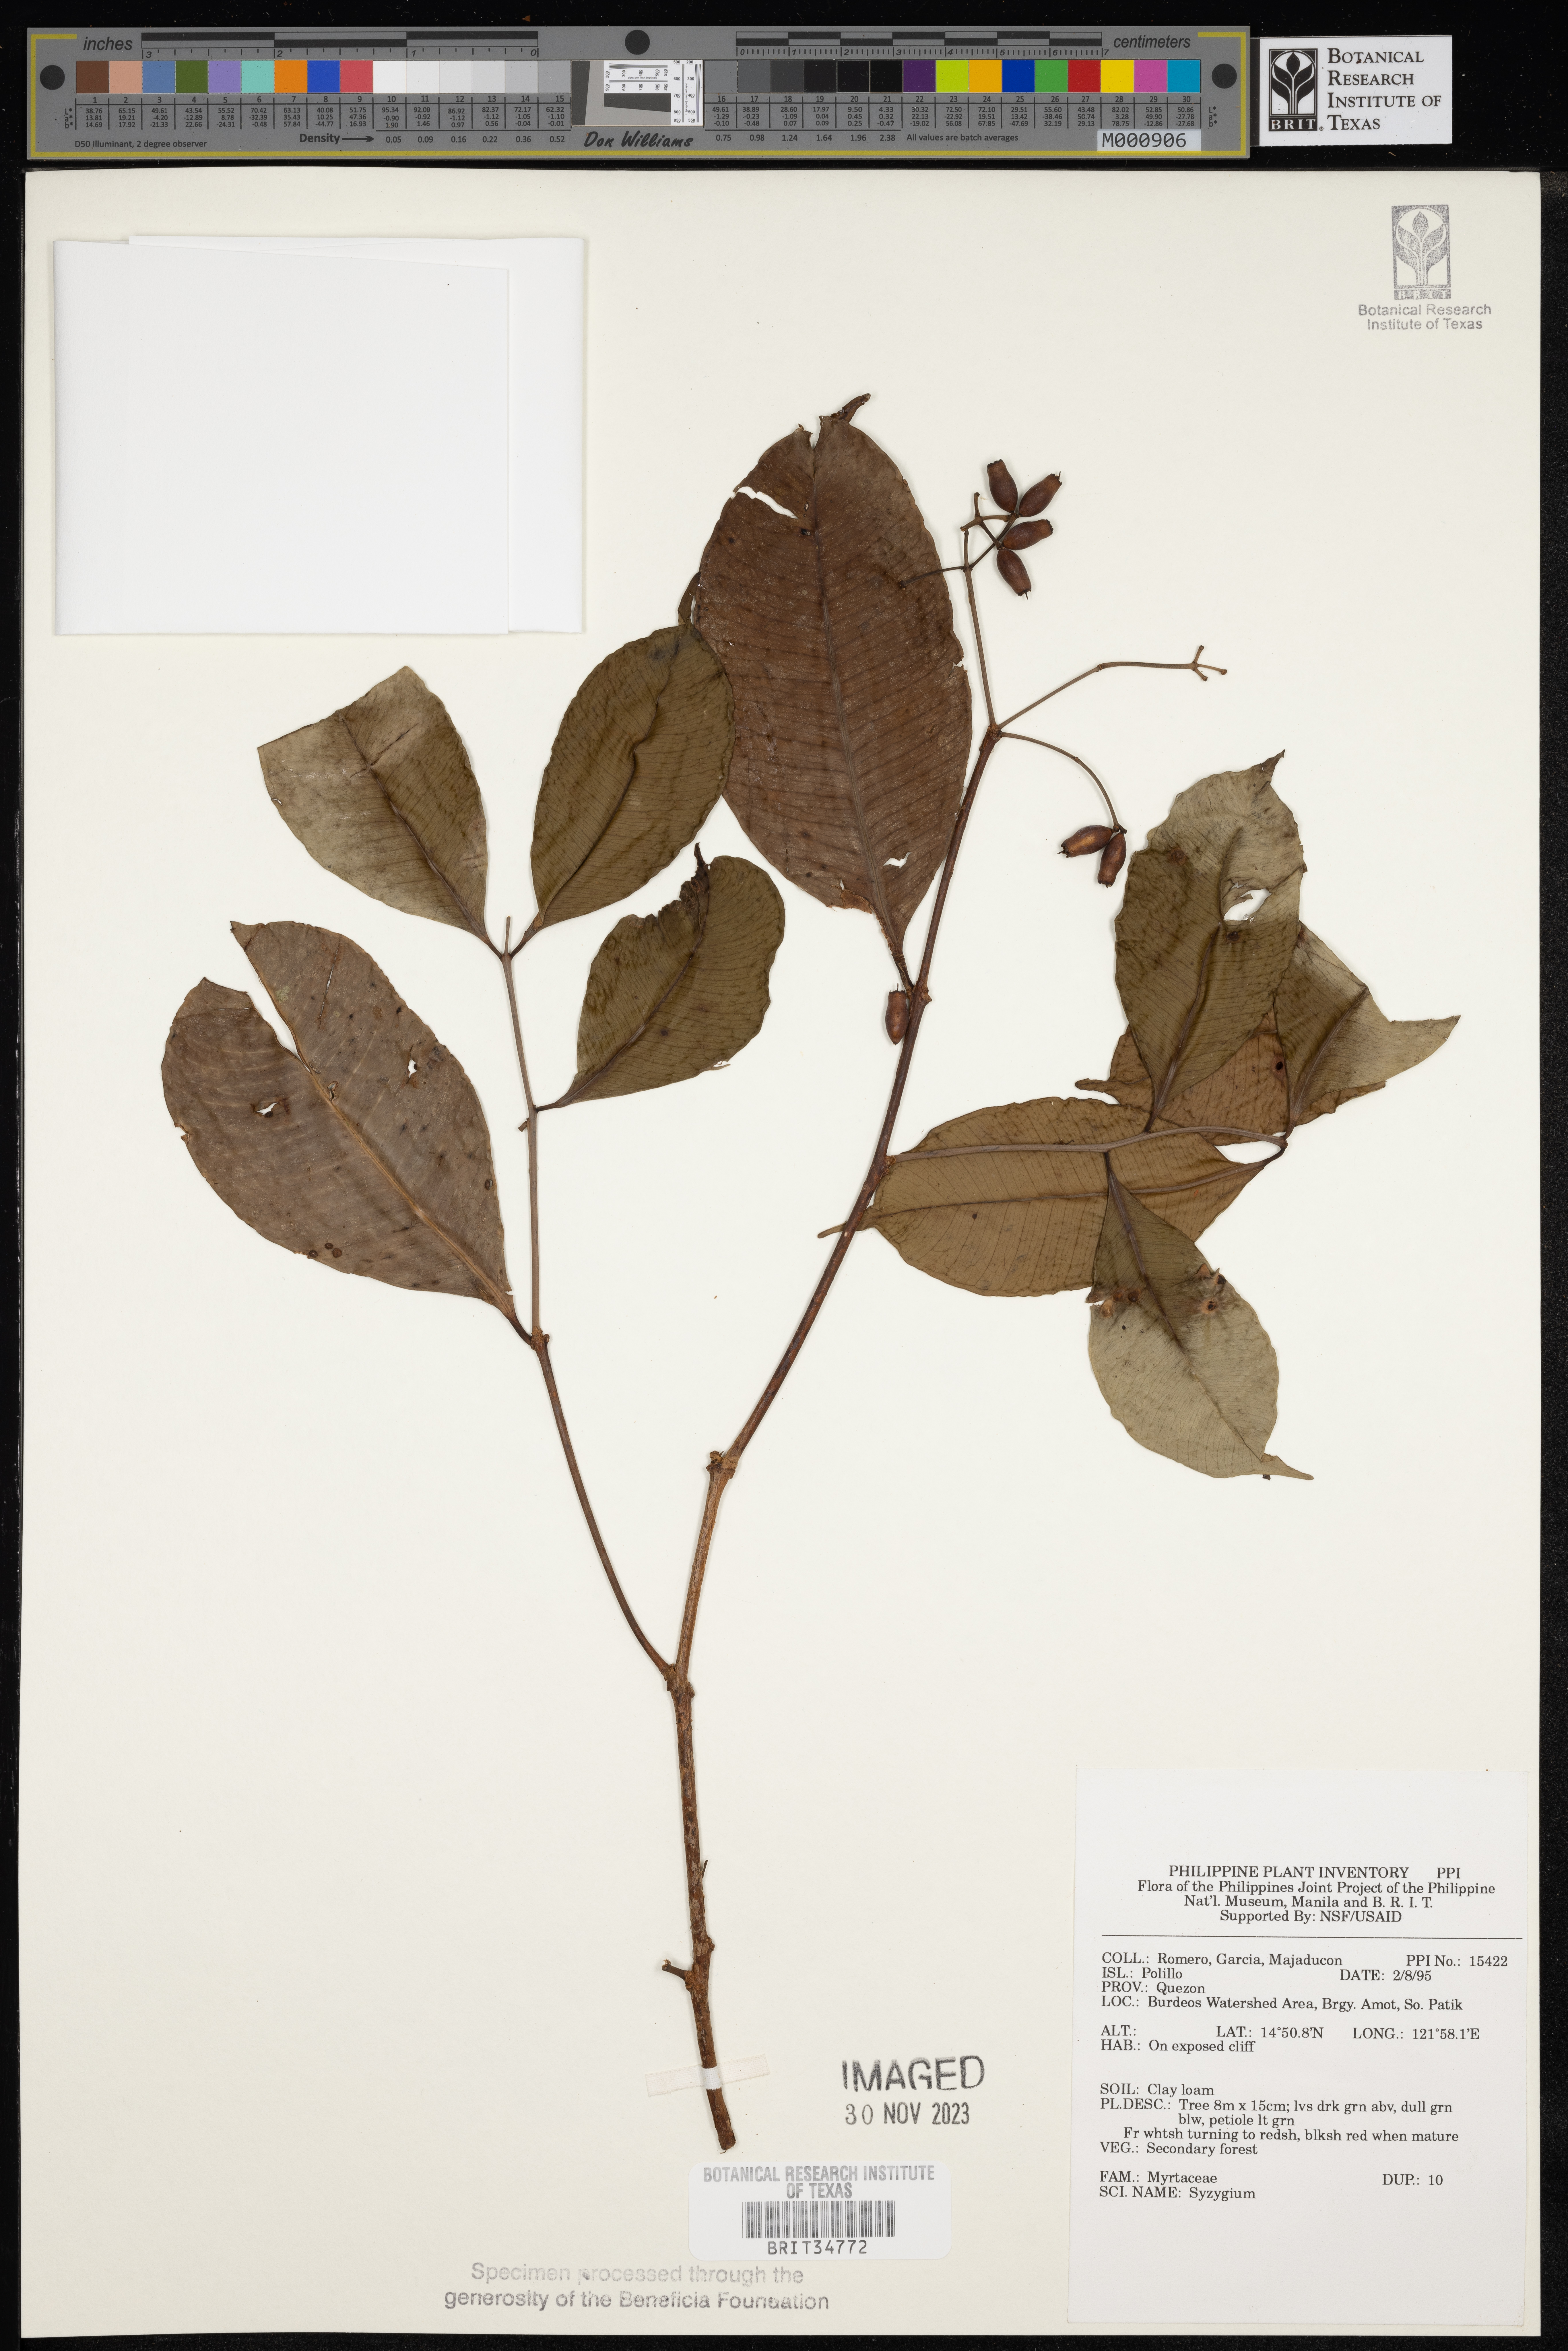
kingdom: Plantae
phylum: Tracheophyta
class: Magnoliopsida
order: Myrtales
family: Myrtaceae
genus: Syzygium
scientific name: Syzygium
